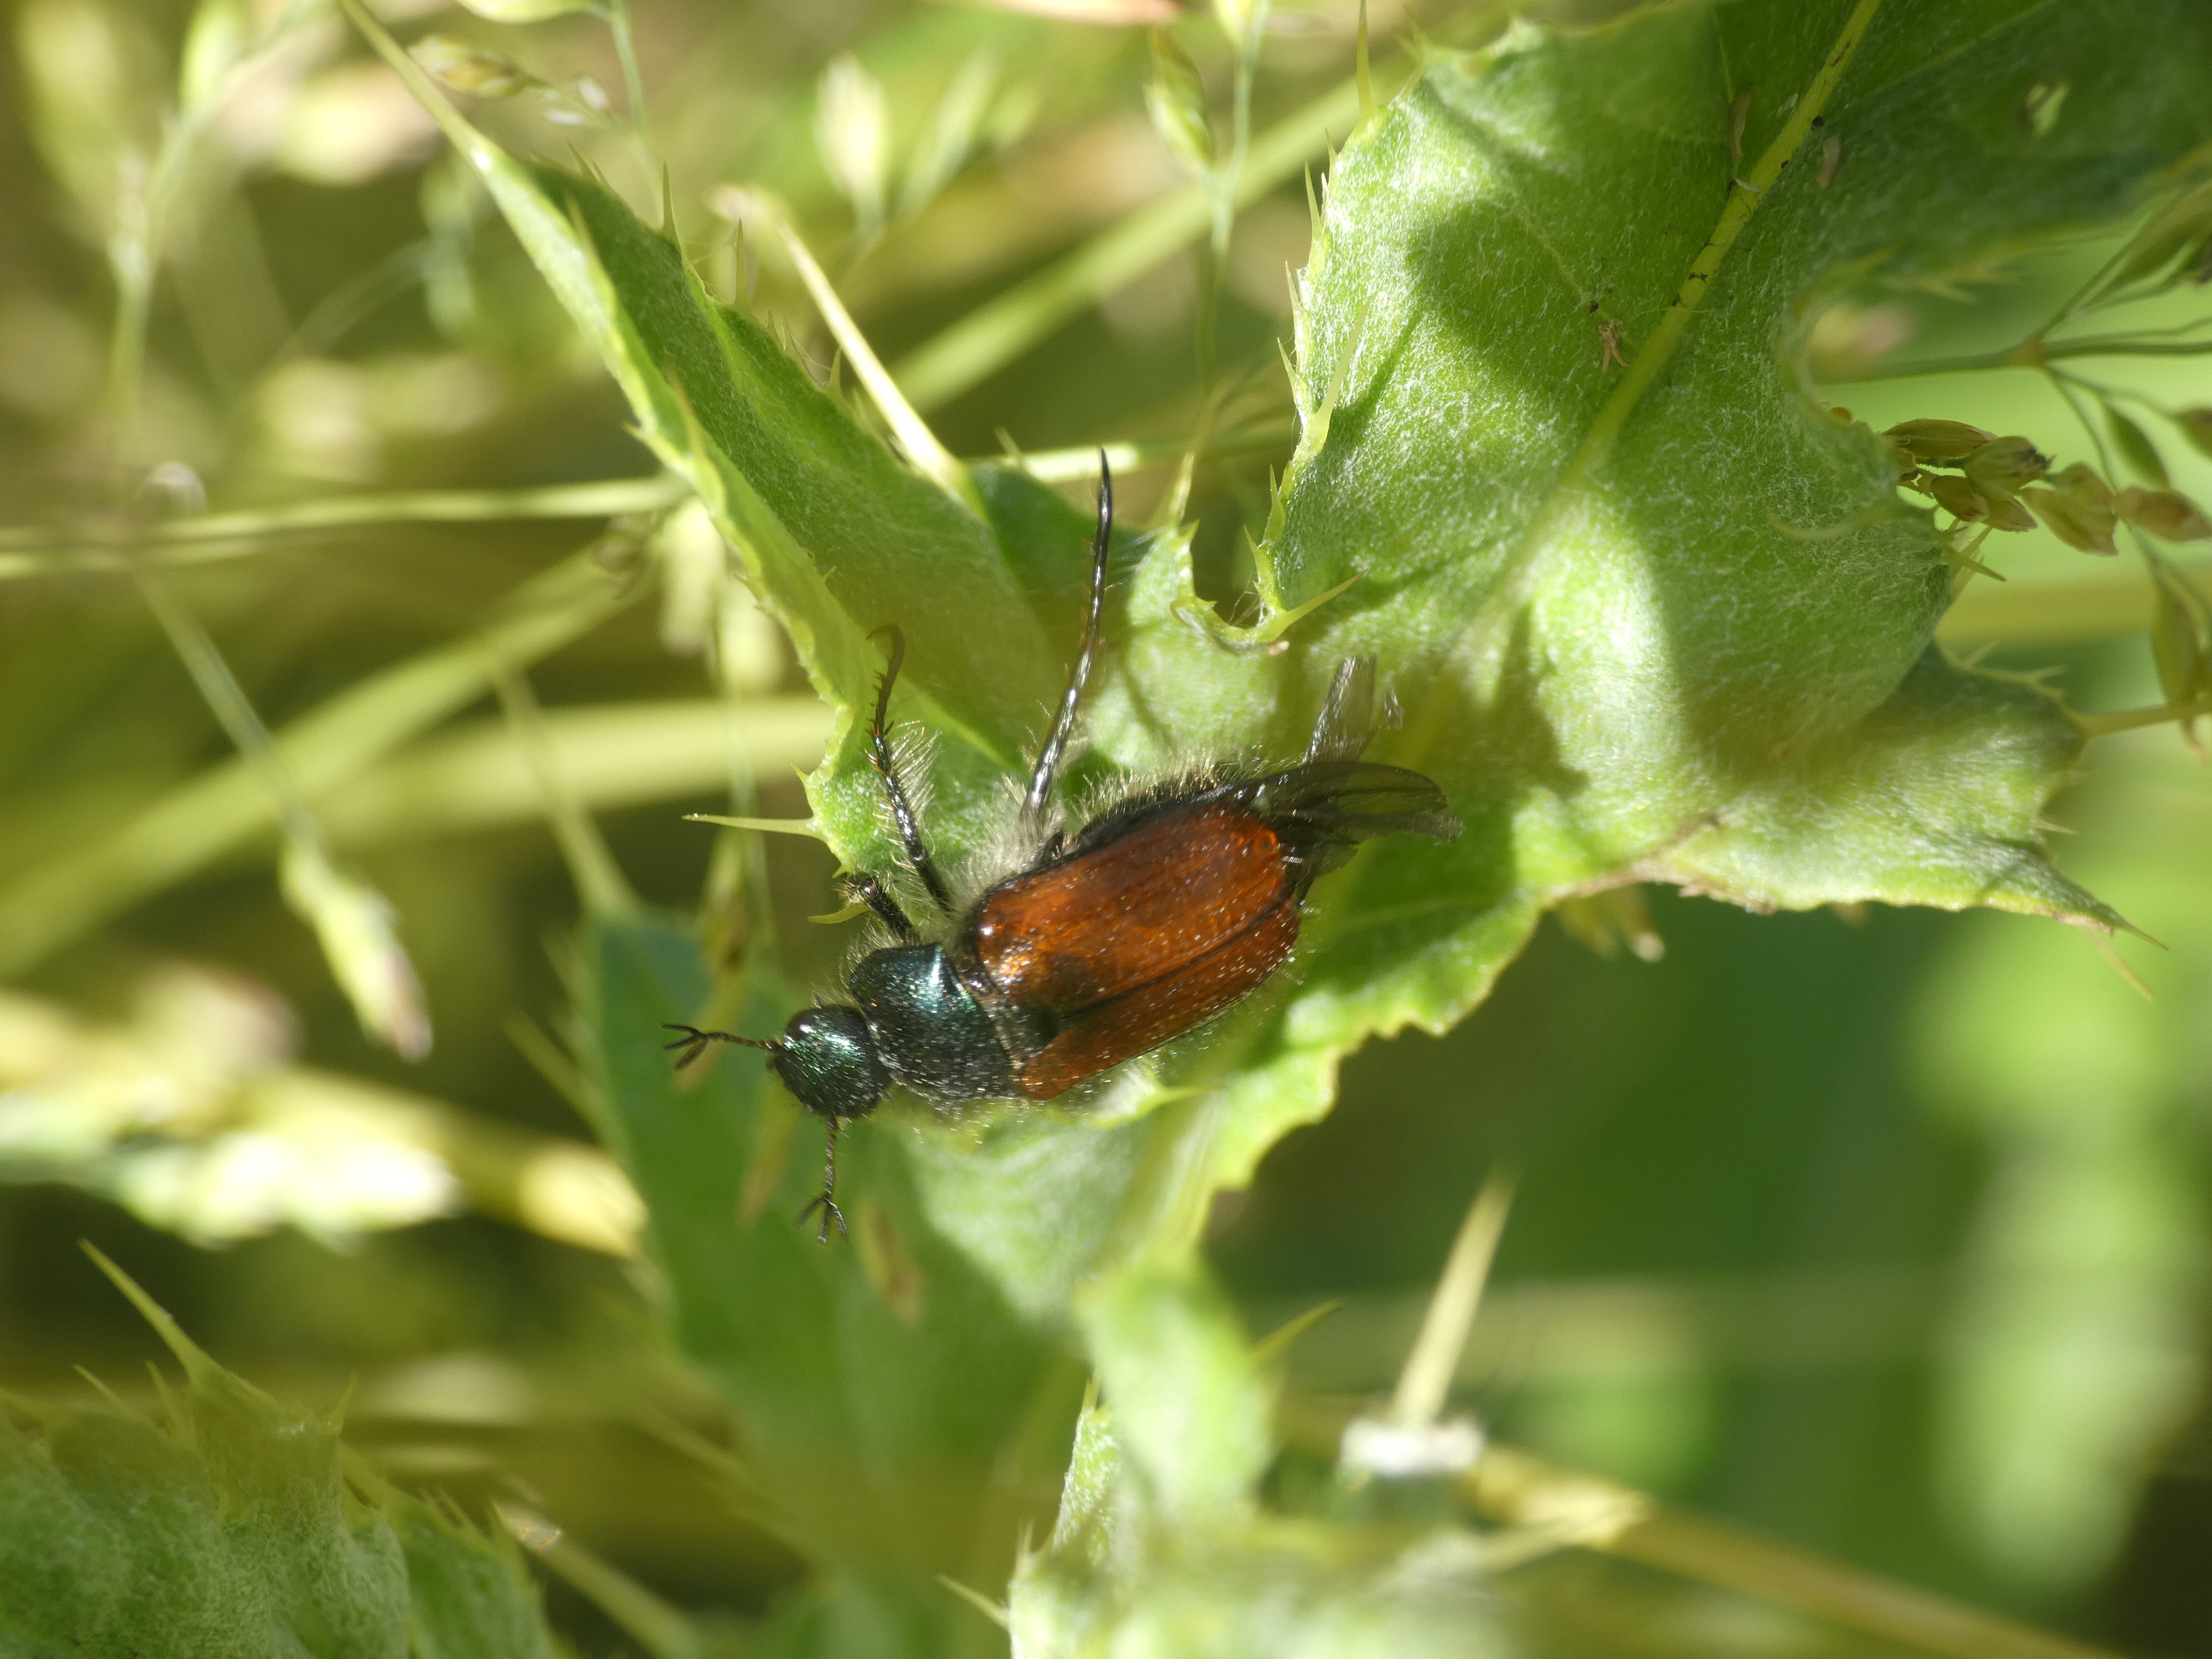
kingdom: Animalia
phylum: Arthropoda
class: Insecta
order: Coleoptera
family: Scarabaeidae
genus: Phyllopertha
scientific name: Phyllopertha horticola
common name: Gåsebille
